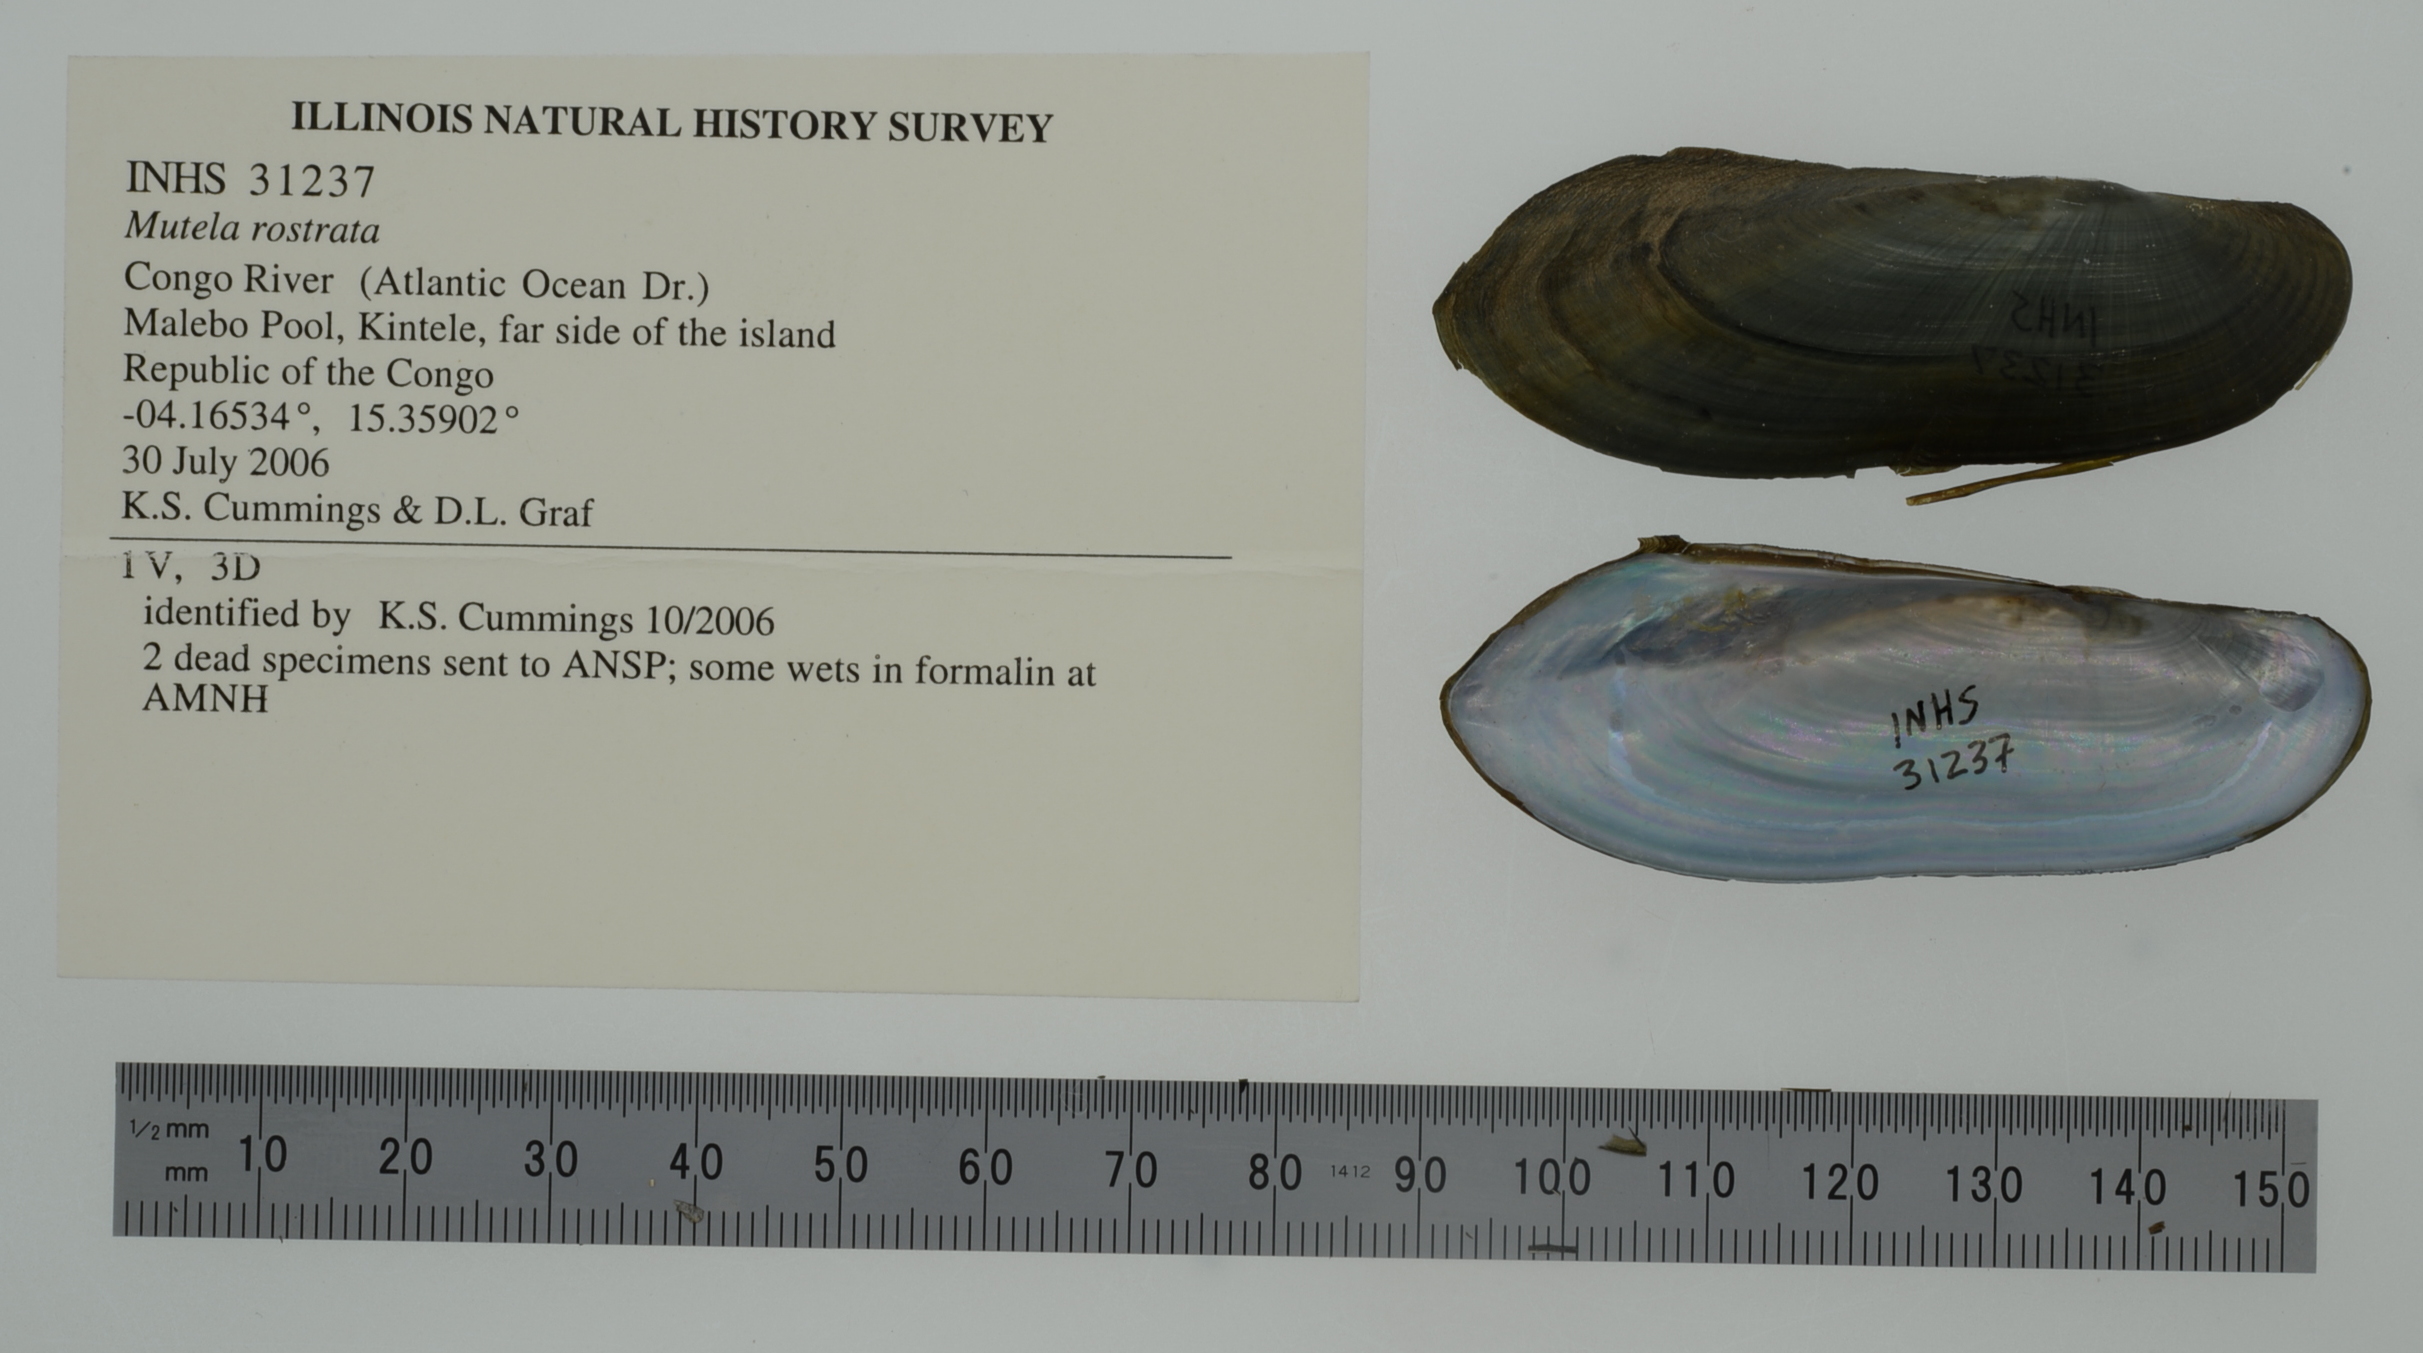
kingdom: Animalia
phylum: Mollusca
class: Bivalvia
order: Unionida
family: Iridinidae
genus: Mutela
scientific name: Mutela rostrata
